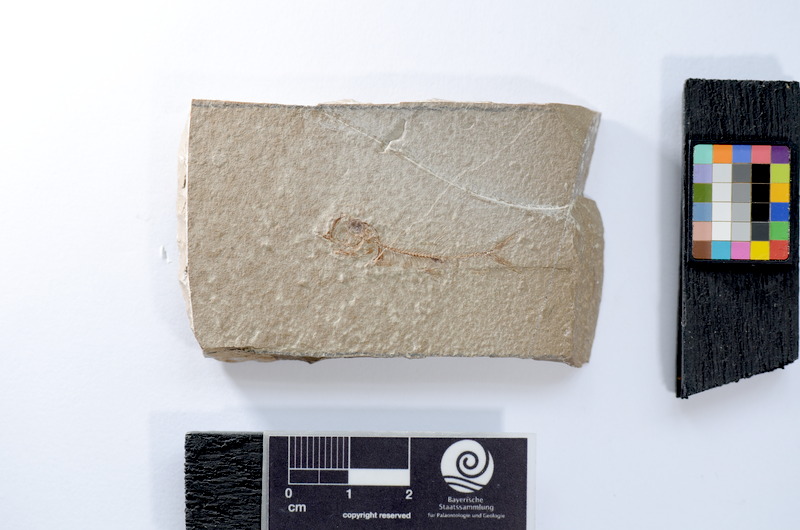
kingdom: Animalia
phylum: Chordata
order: Elopiformes
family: Anaethalionidae
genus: Anaethalion
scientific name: Anaethalion
